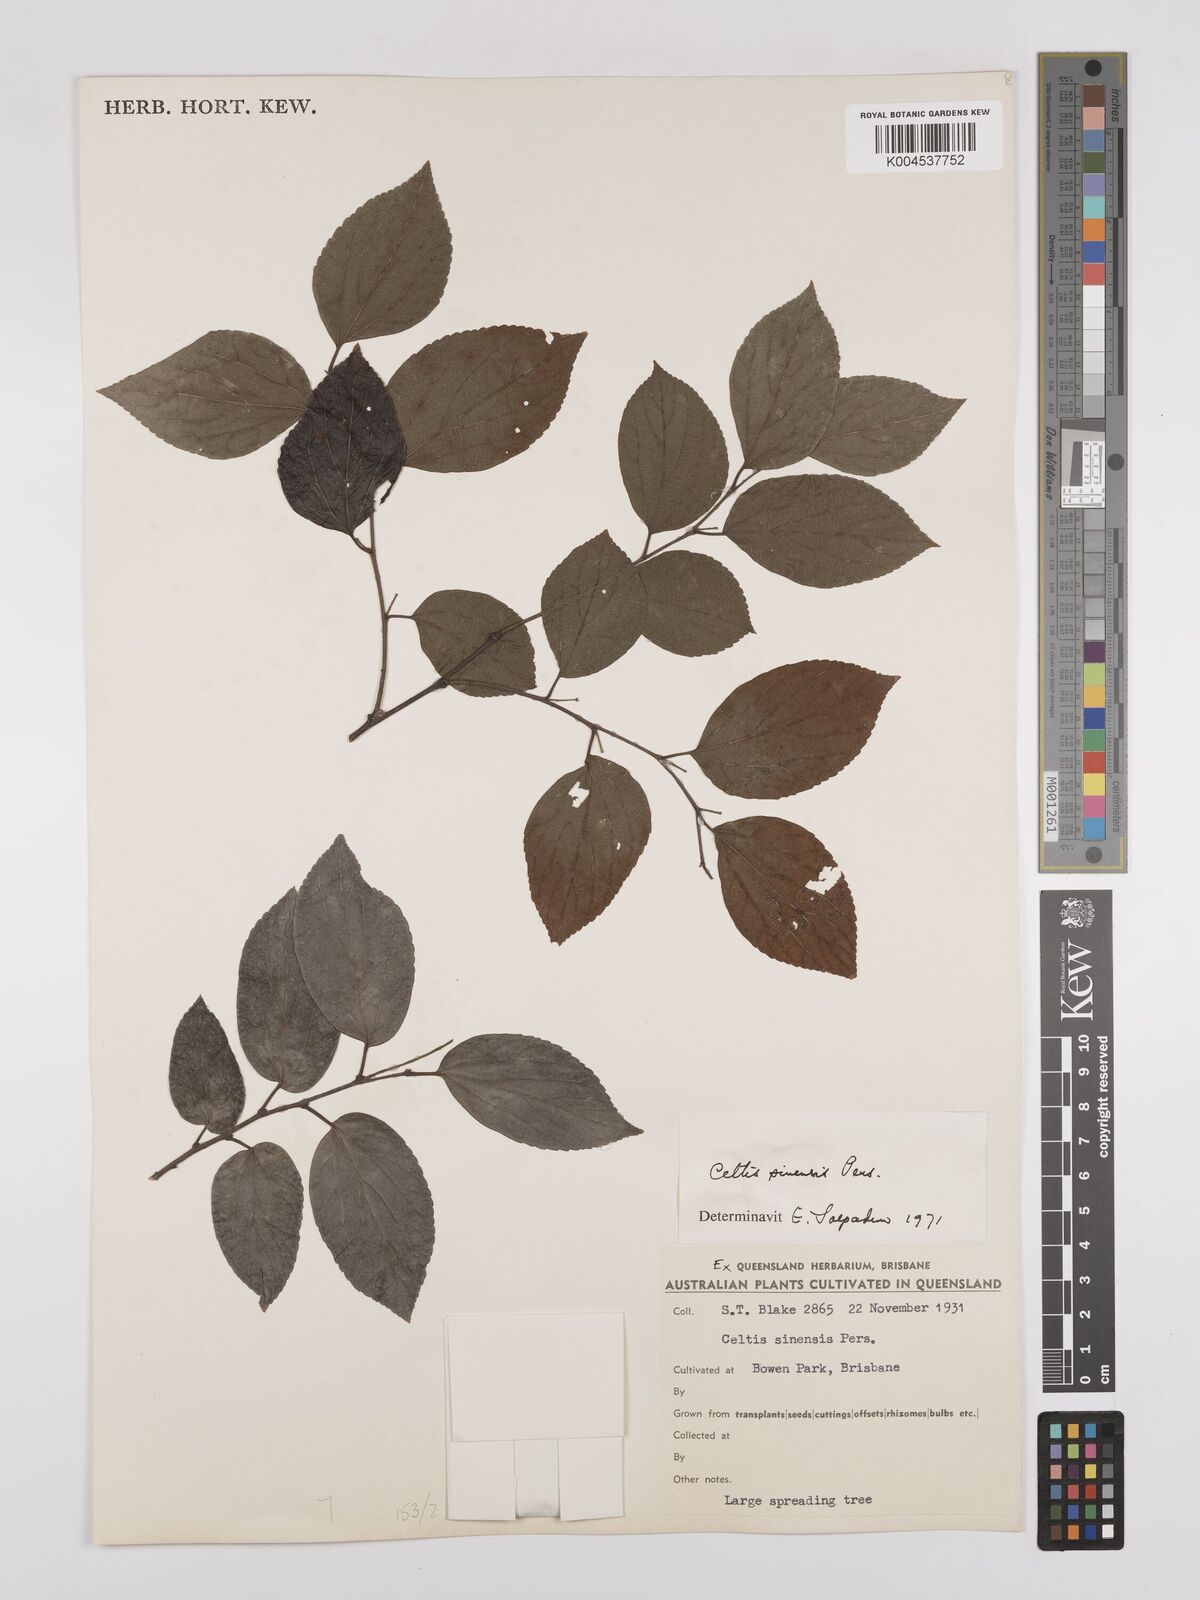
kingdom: Plantae
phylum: Tracheophyta
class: Magnoliopsida
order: Rosales
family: Cannabaceae
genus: Celtis
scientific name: Celtis
